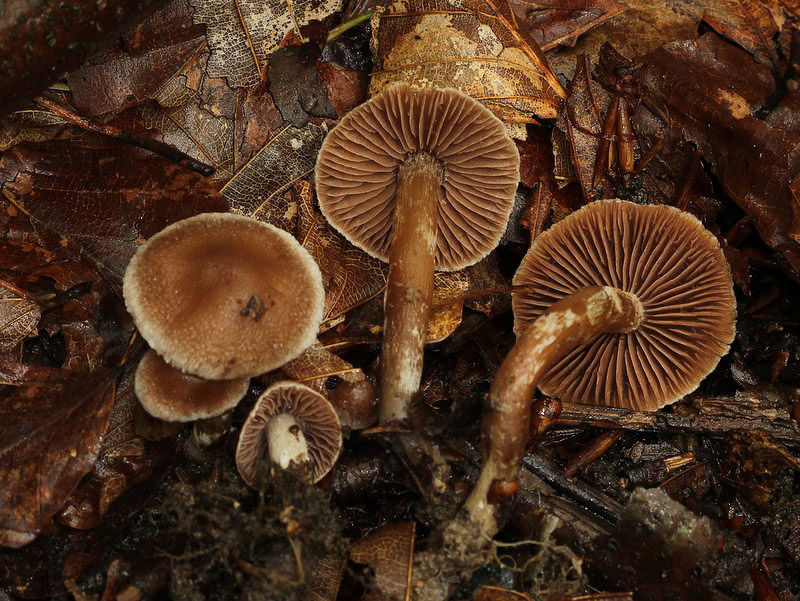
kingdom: Fungi
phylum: Basidiomycota
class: Agaricomycetes
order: Agaricales
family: Cortinariaceae
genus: Cortinarius
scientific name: Cortinarius
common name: pelargonie-slørhat
